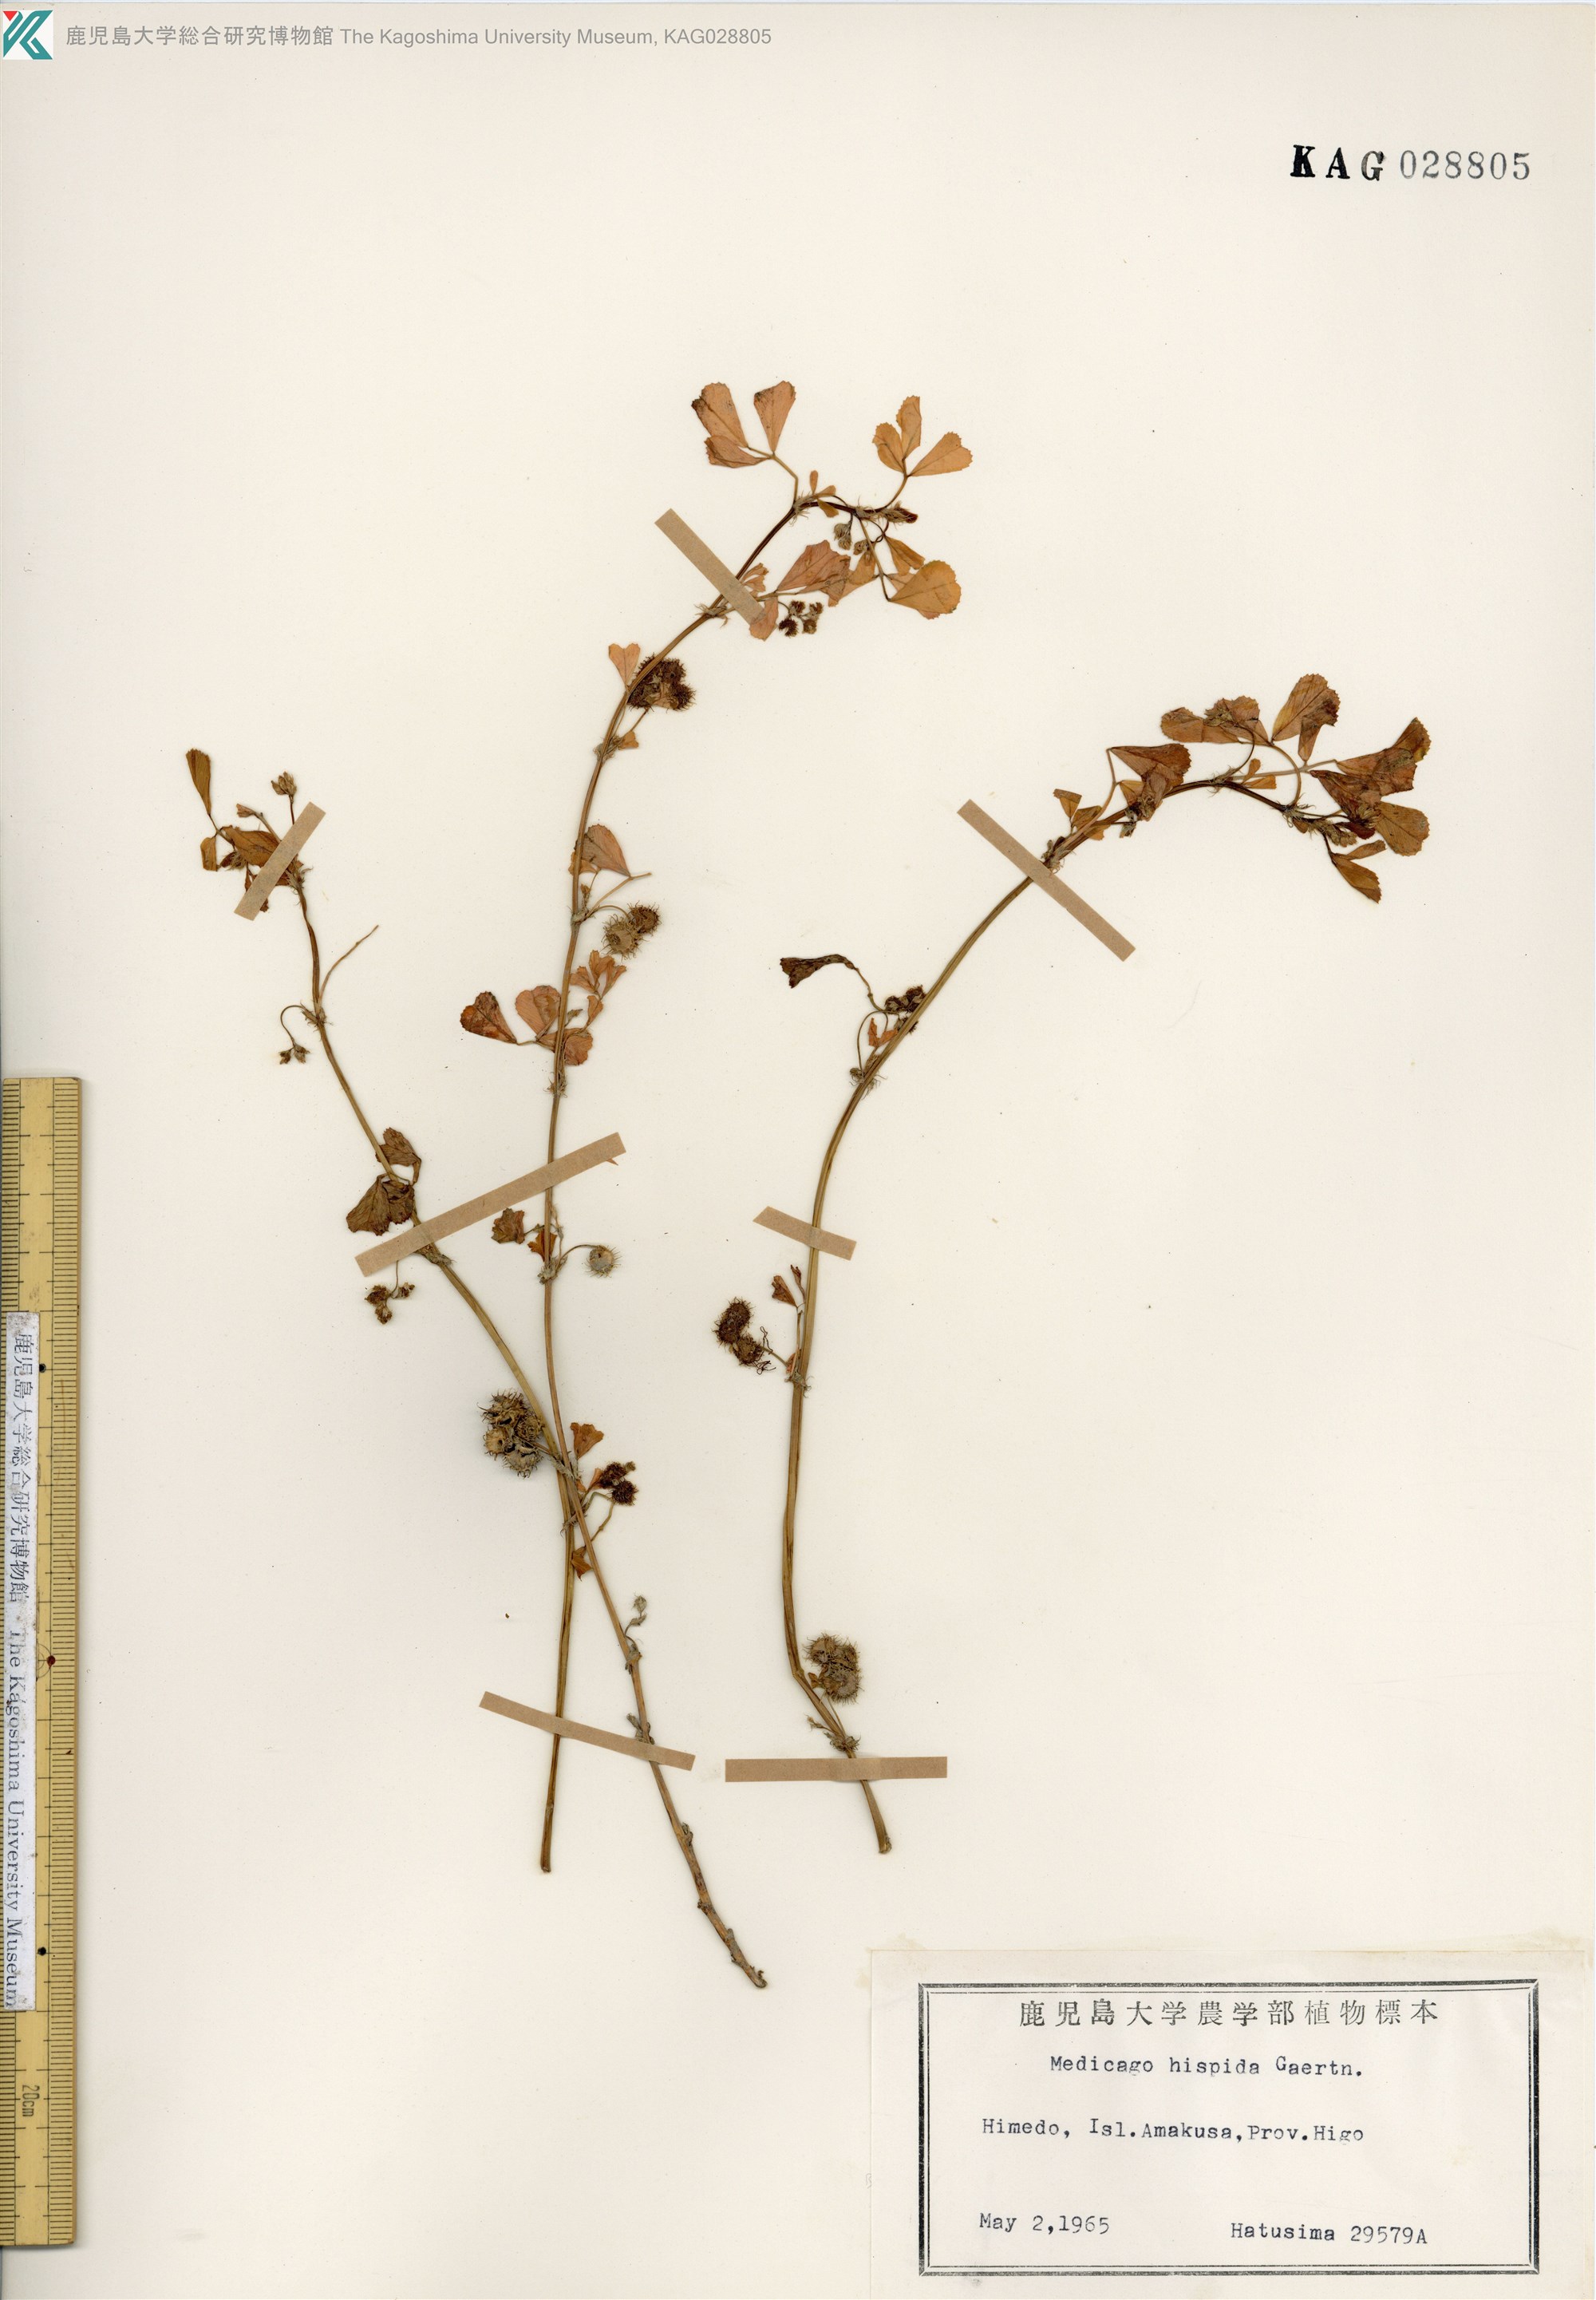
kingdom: Plantae
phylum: Tracheophyta
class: Magnoliopsida
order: Fabales
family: Fabaceae
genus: Medicago
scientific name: Medicago polymorpha
